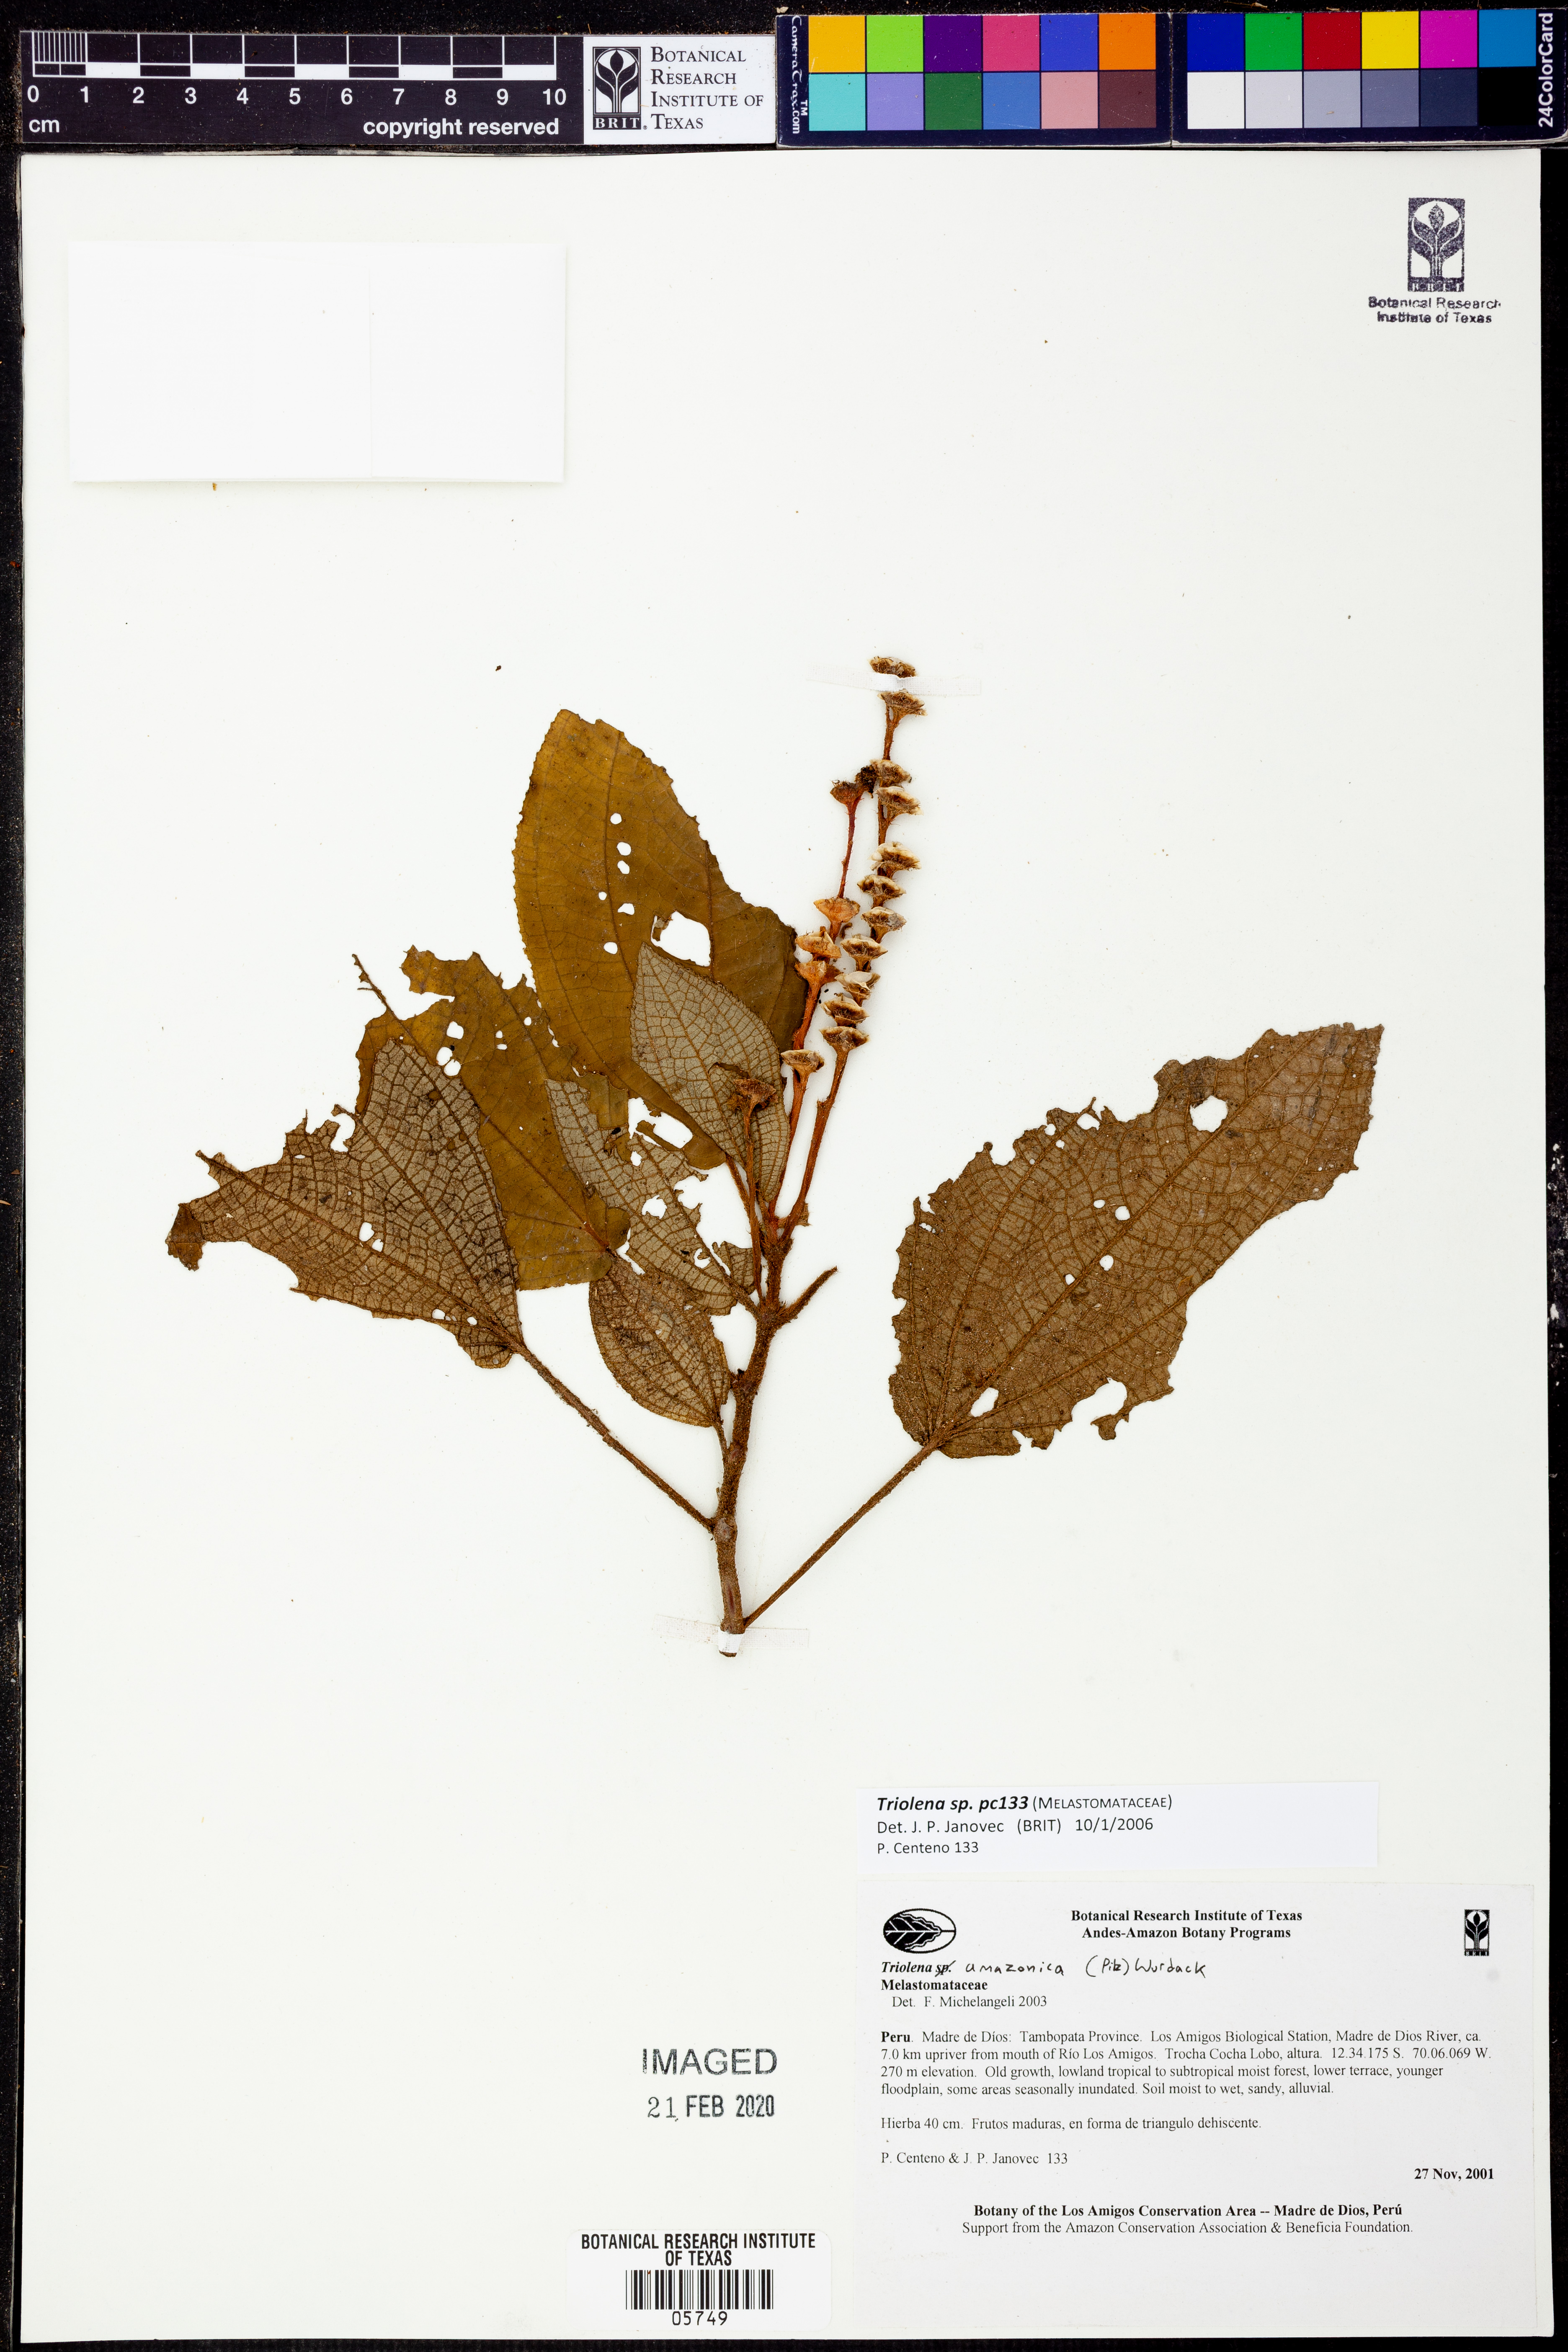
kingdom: Plantae
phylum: Tracheophyta
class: Magnoliopsida
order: Myrtales
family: Melastomataceae
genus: Triolena
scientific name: Triolena
